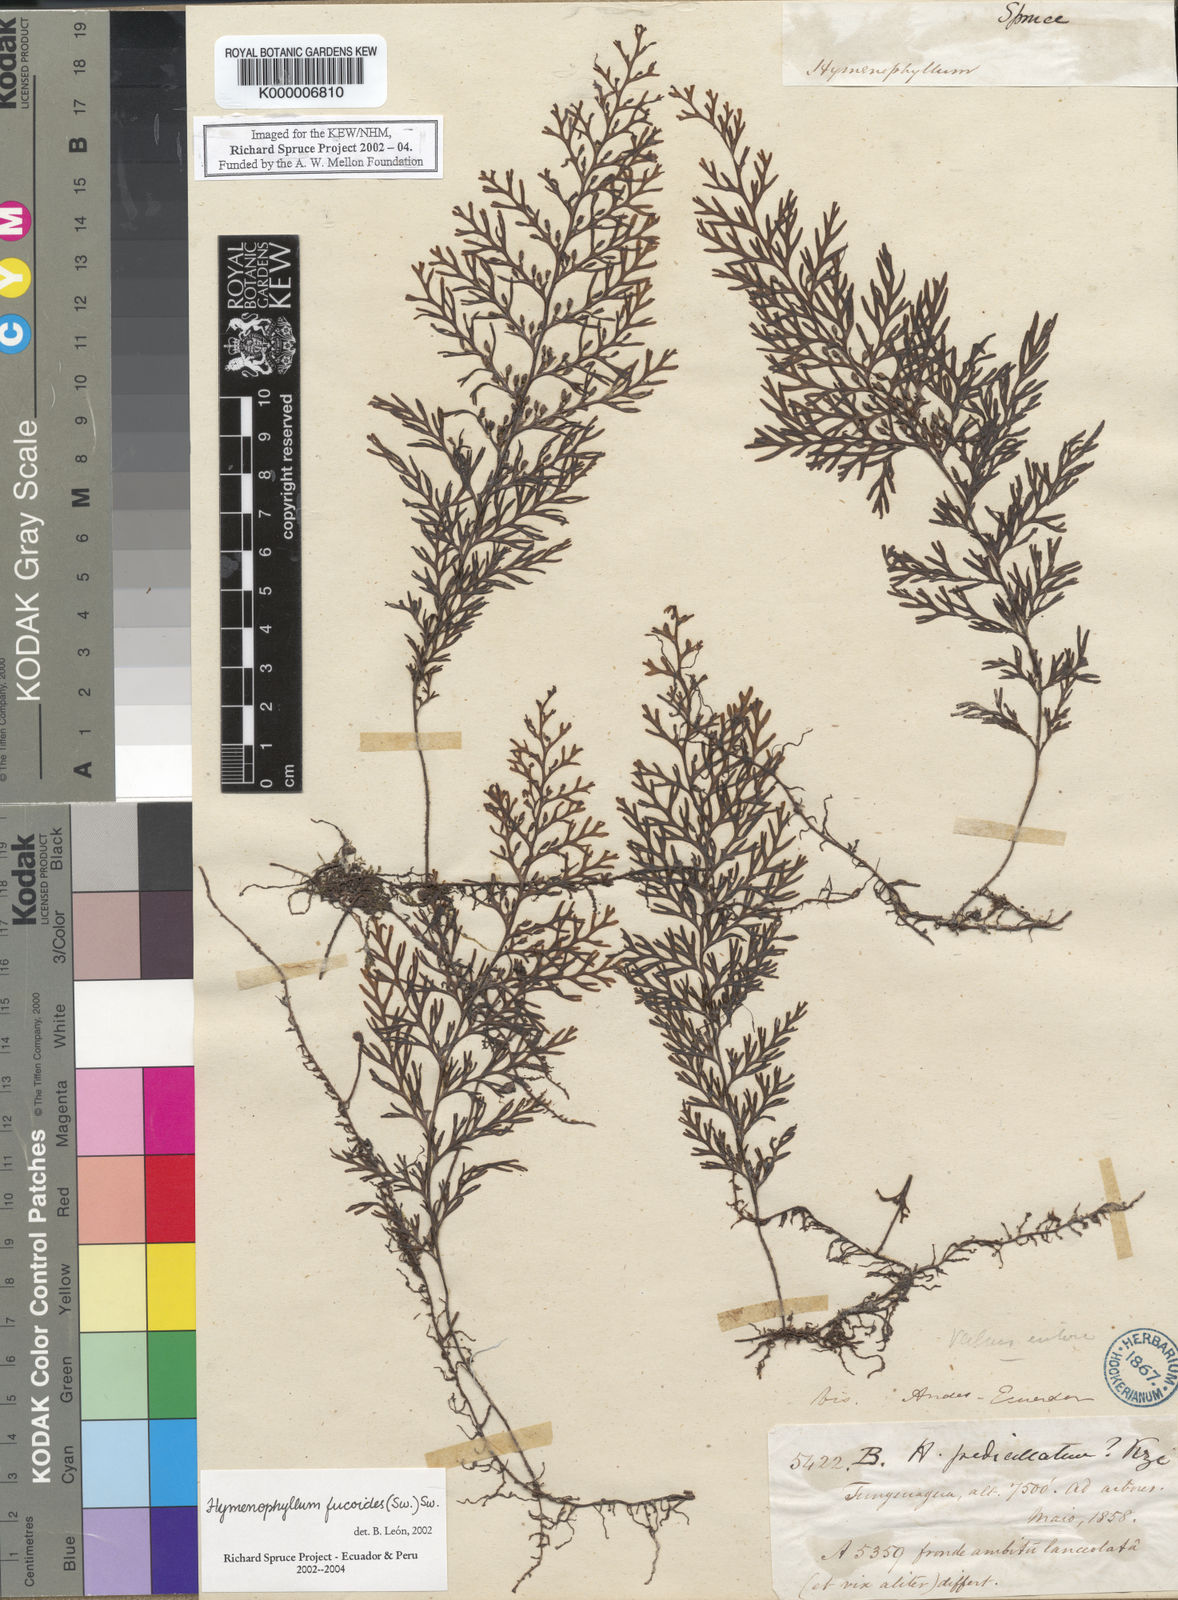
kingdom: Plantae
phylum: Tracheophyta
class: Polypodiopsida
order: Hymenophyllales
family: Hymenophyllaceae
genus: Hymenophyllum
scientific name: Hymenophyllum fucoides
